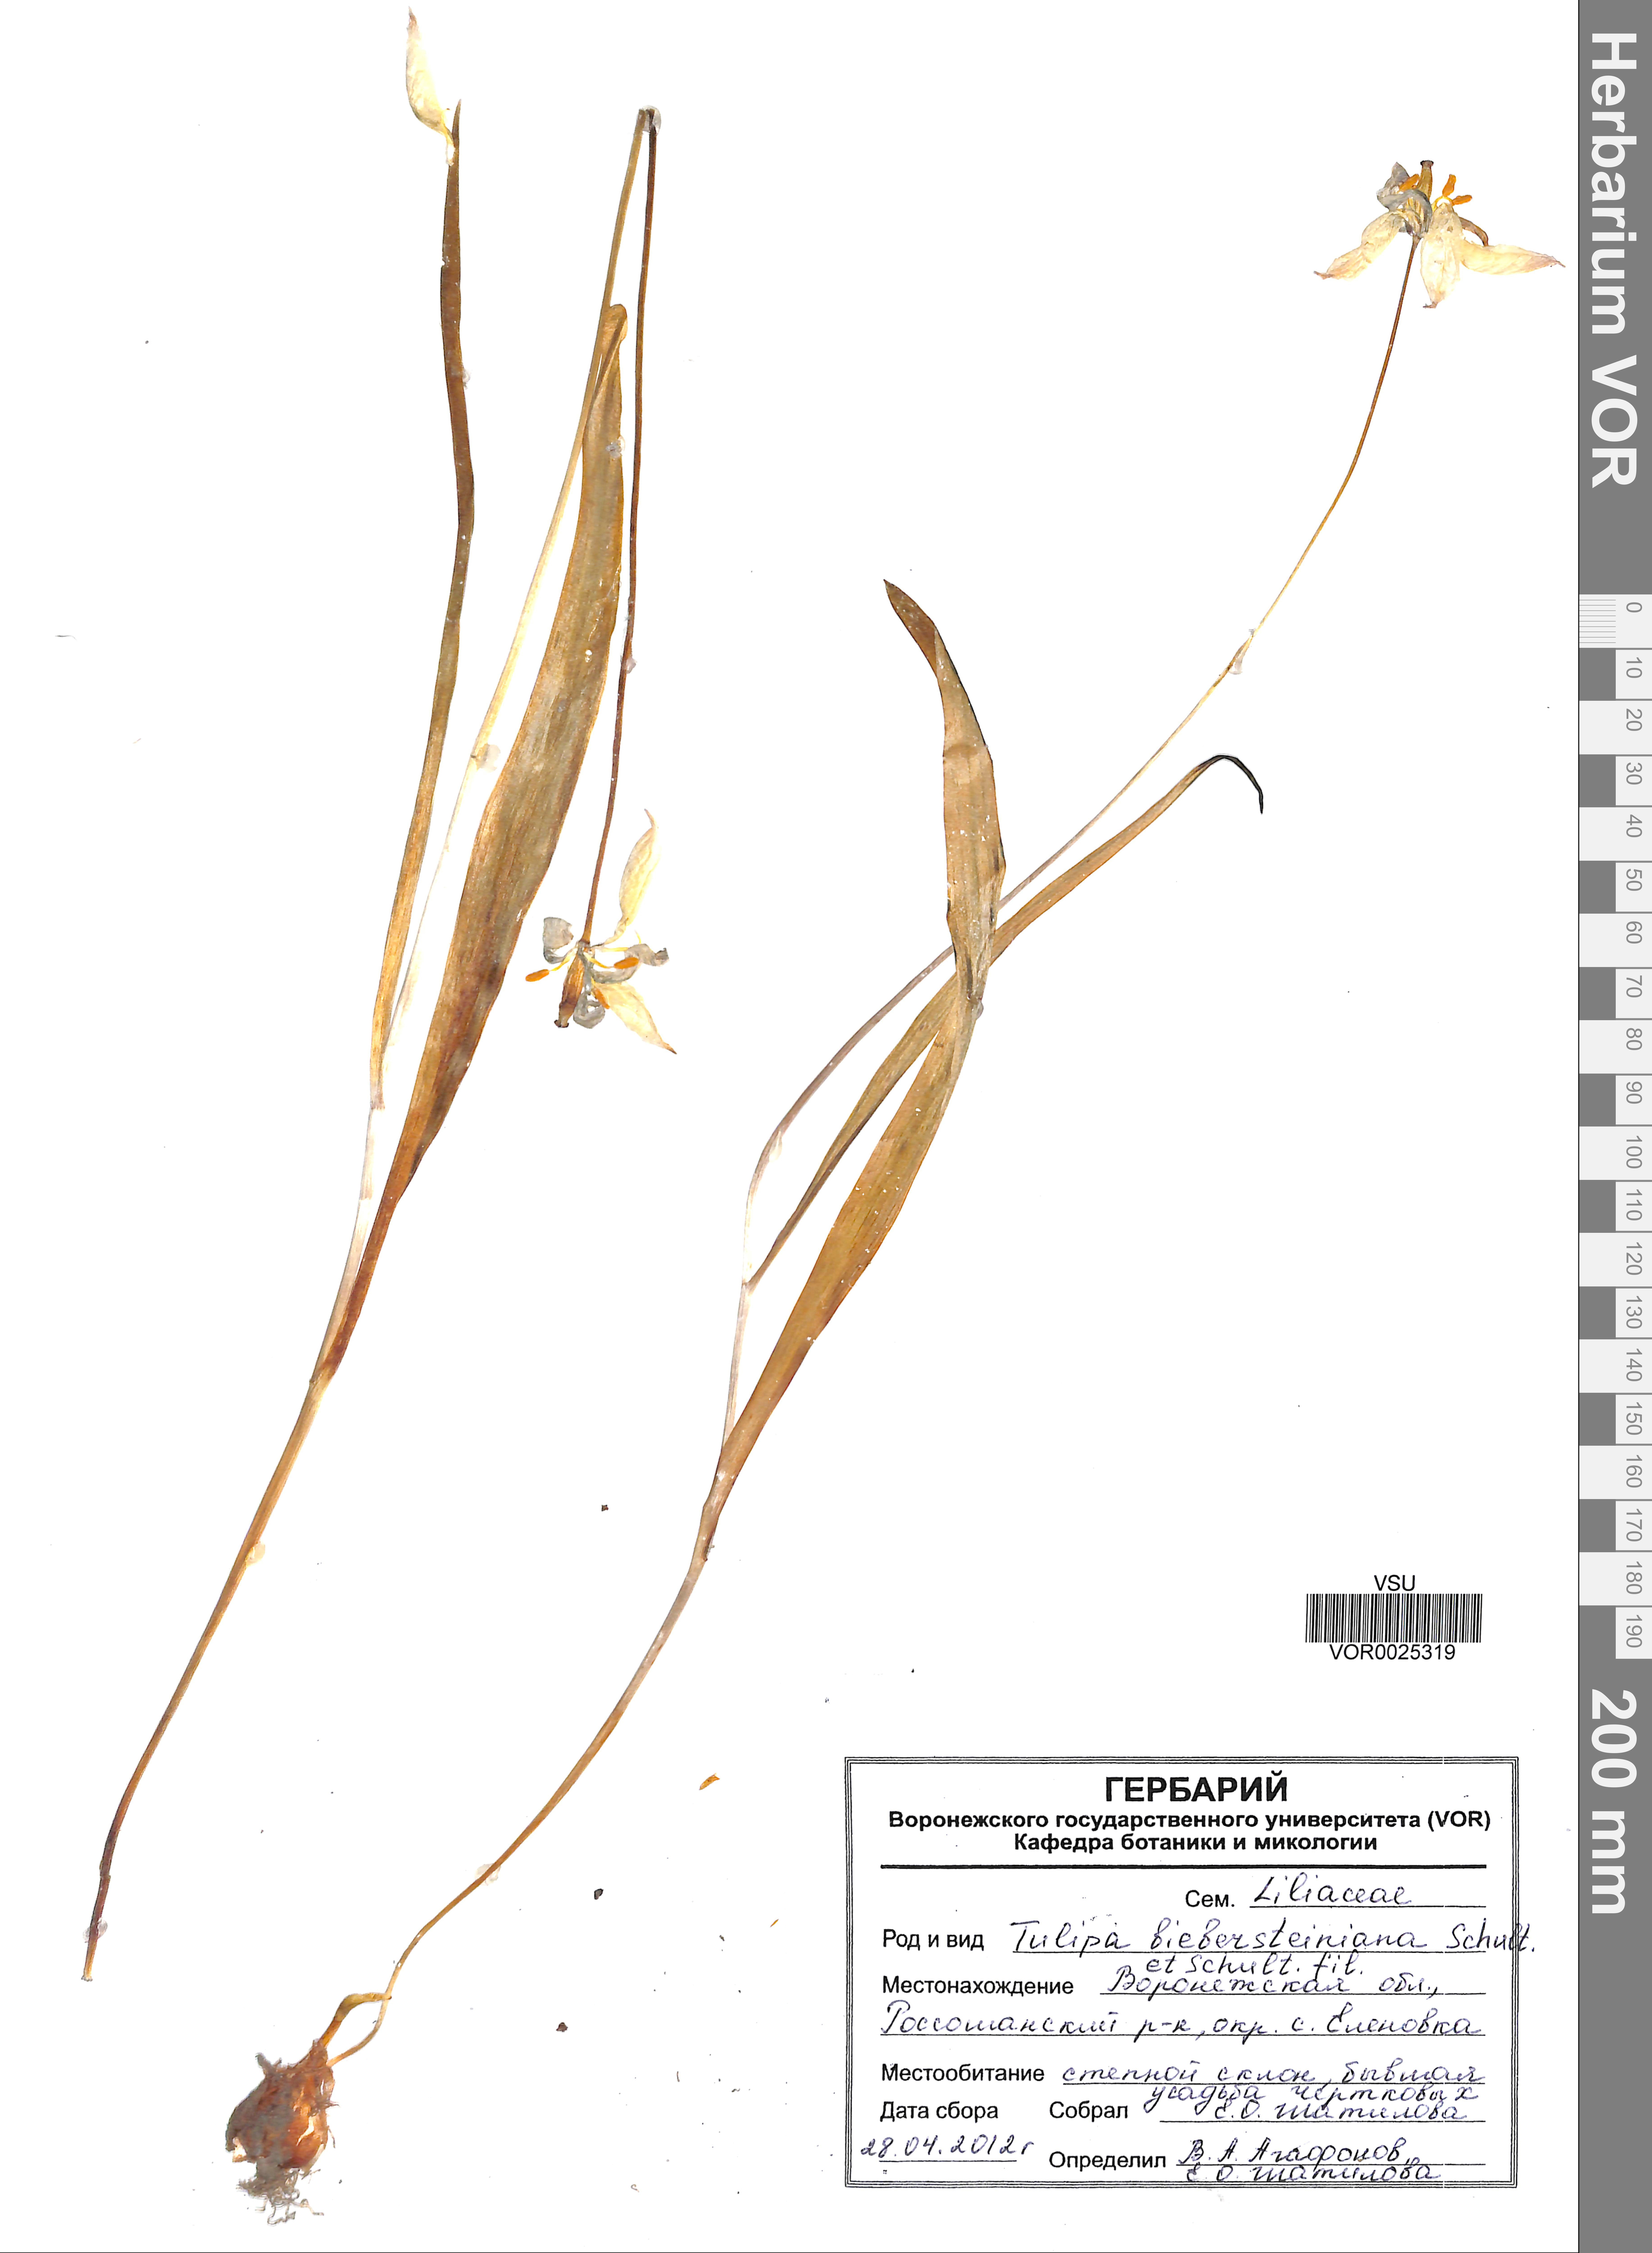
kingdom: Plantae
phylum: Tracheophyta
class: Liliopsida
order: Liliales
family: Liliaceae
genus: Tulipa
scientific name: Tulipa sylvestris
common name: Wild tulip
